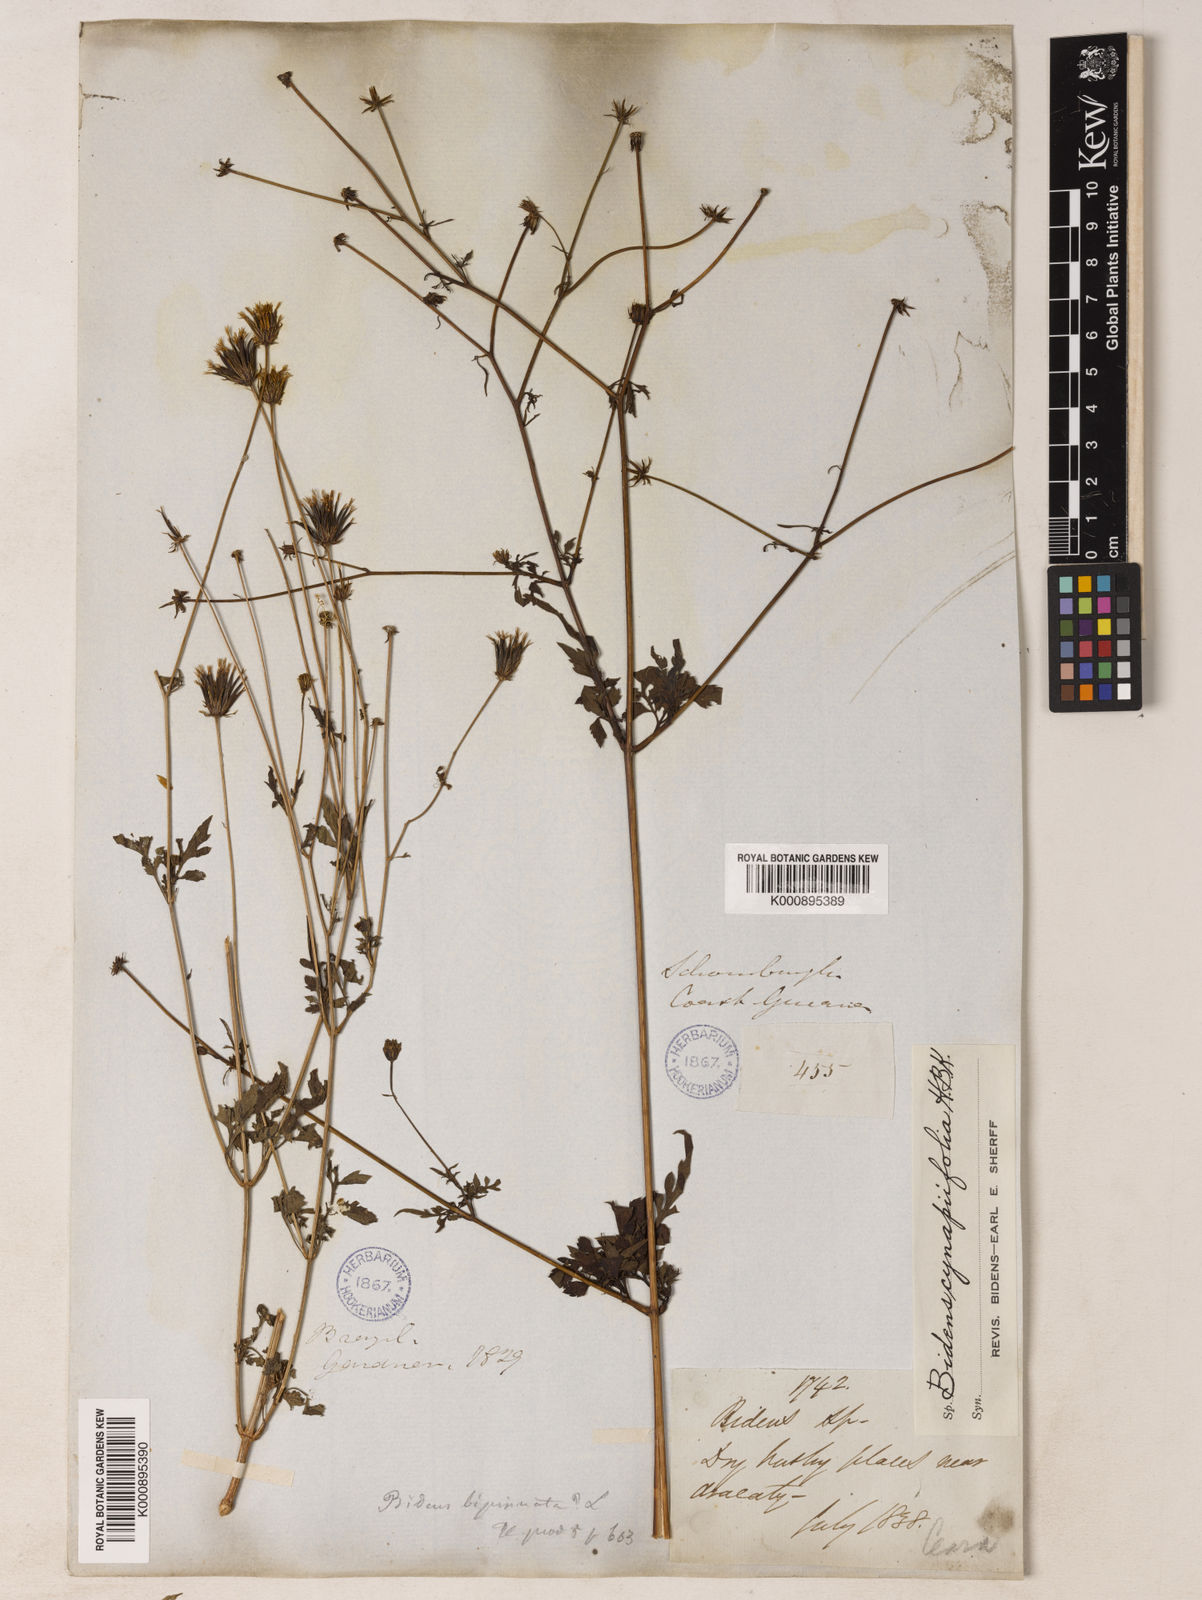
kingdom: Plantae
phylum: Tracheophyta
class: Magnoliopsida
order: Asterales
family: Asteraceae
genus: Bidens
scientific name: Bidens cynapiifolia
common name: Beggar's tick
